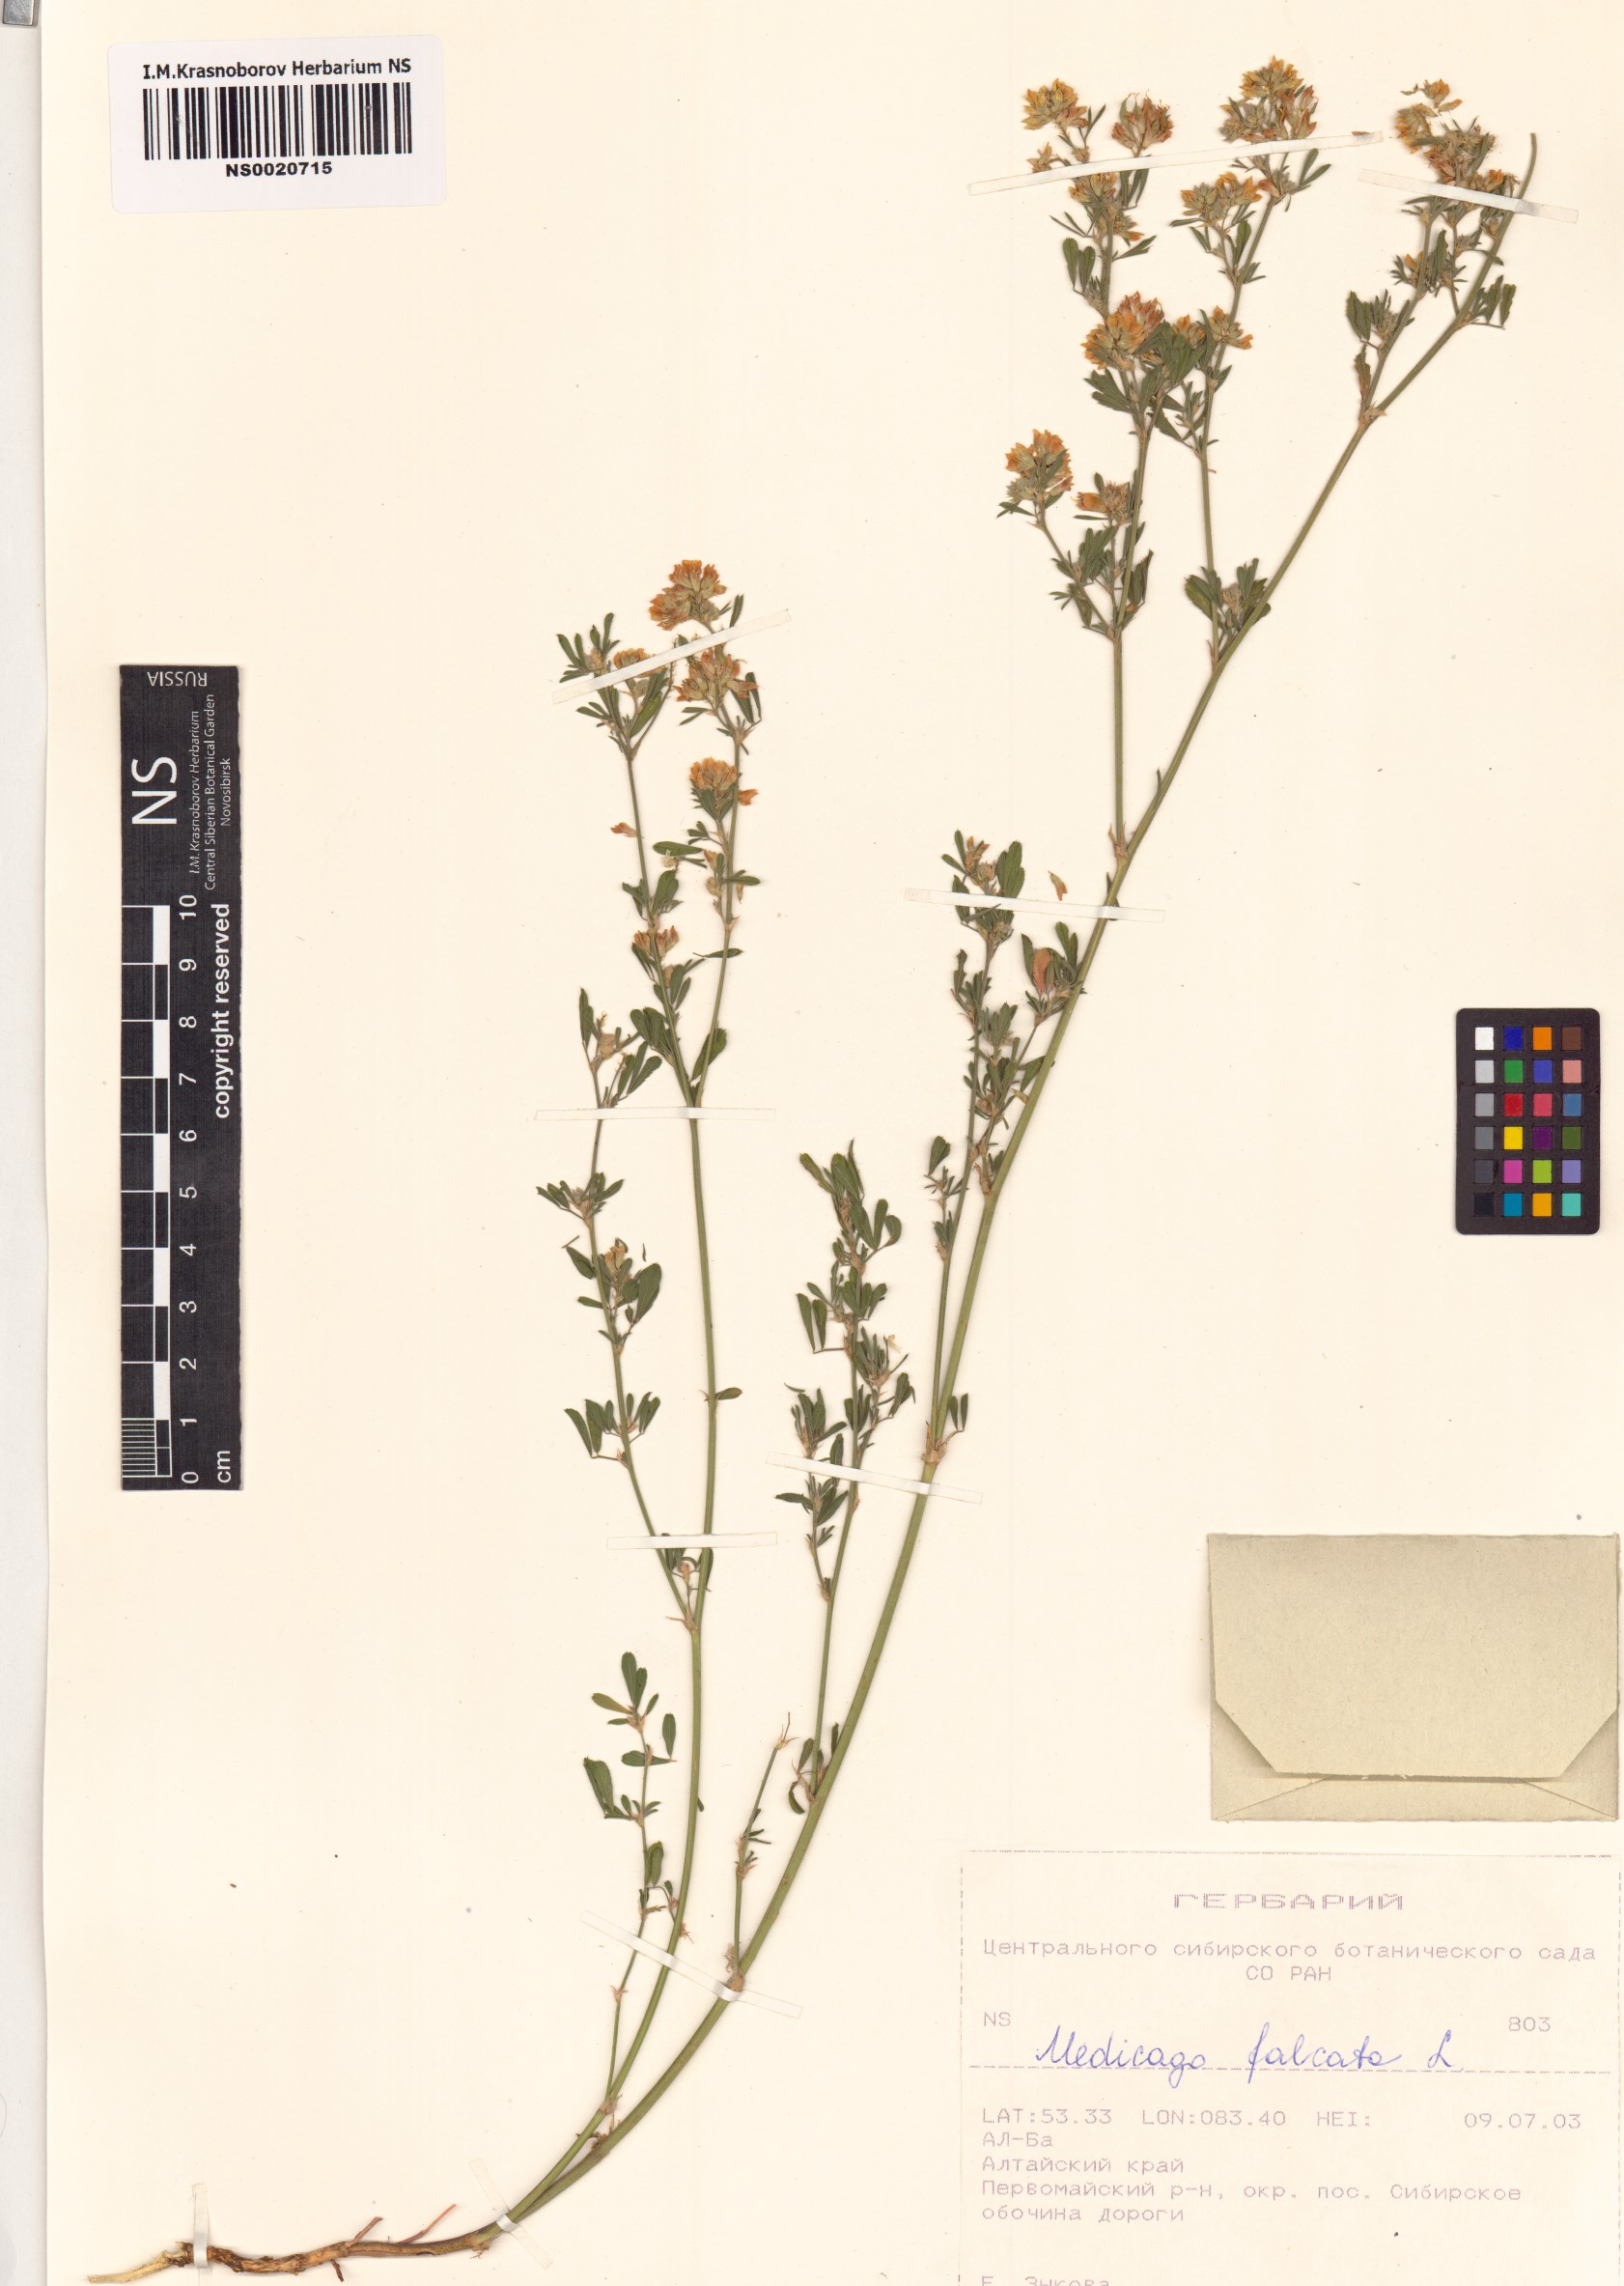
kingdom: Plantae
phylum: Tracheophyta
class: Magnoliopsida
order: Fabales
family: Fabaceae
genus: Medicago
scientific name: Medicago falcata
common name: Sickle medick
